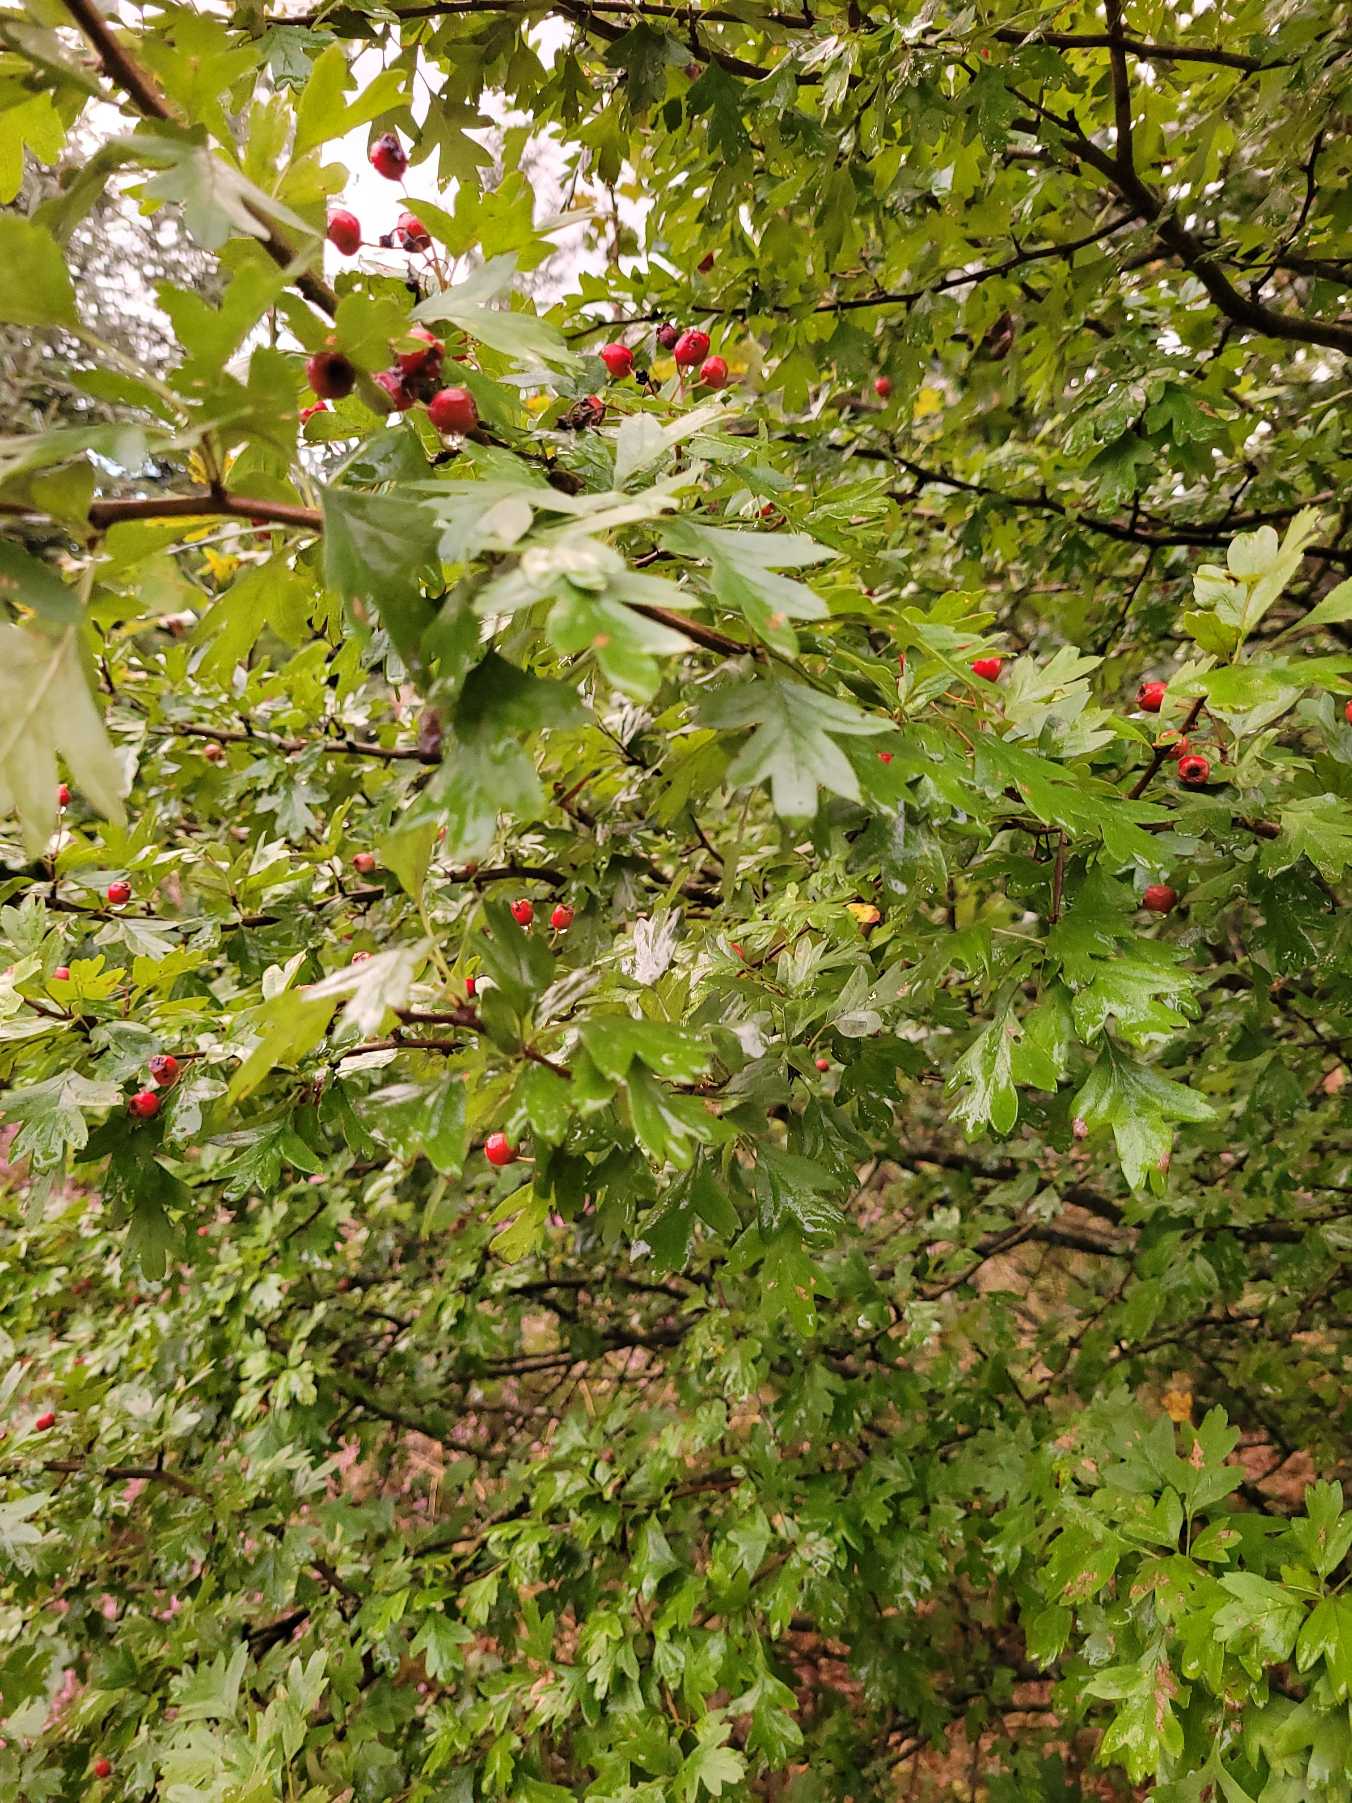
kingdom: Plantae
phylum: Tracheophyta
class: Magnoliopsida
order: Rosales
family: Rosaceae
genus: Crataegus
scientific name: Crataegus monogyna
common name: Engriflet hvidtjørn
